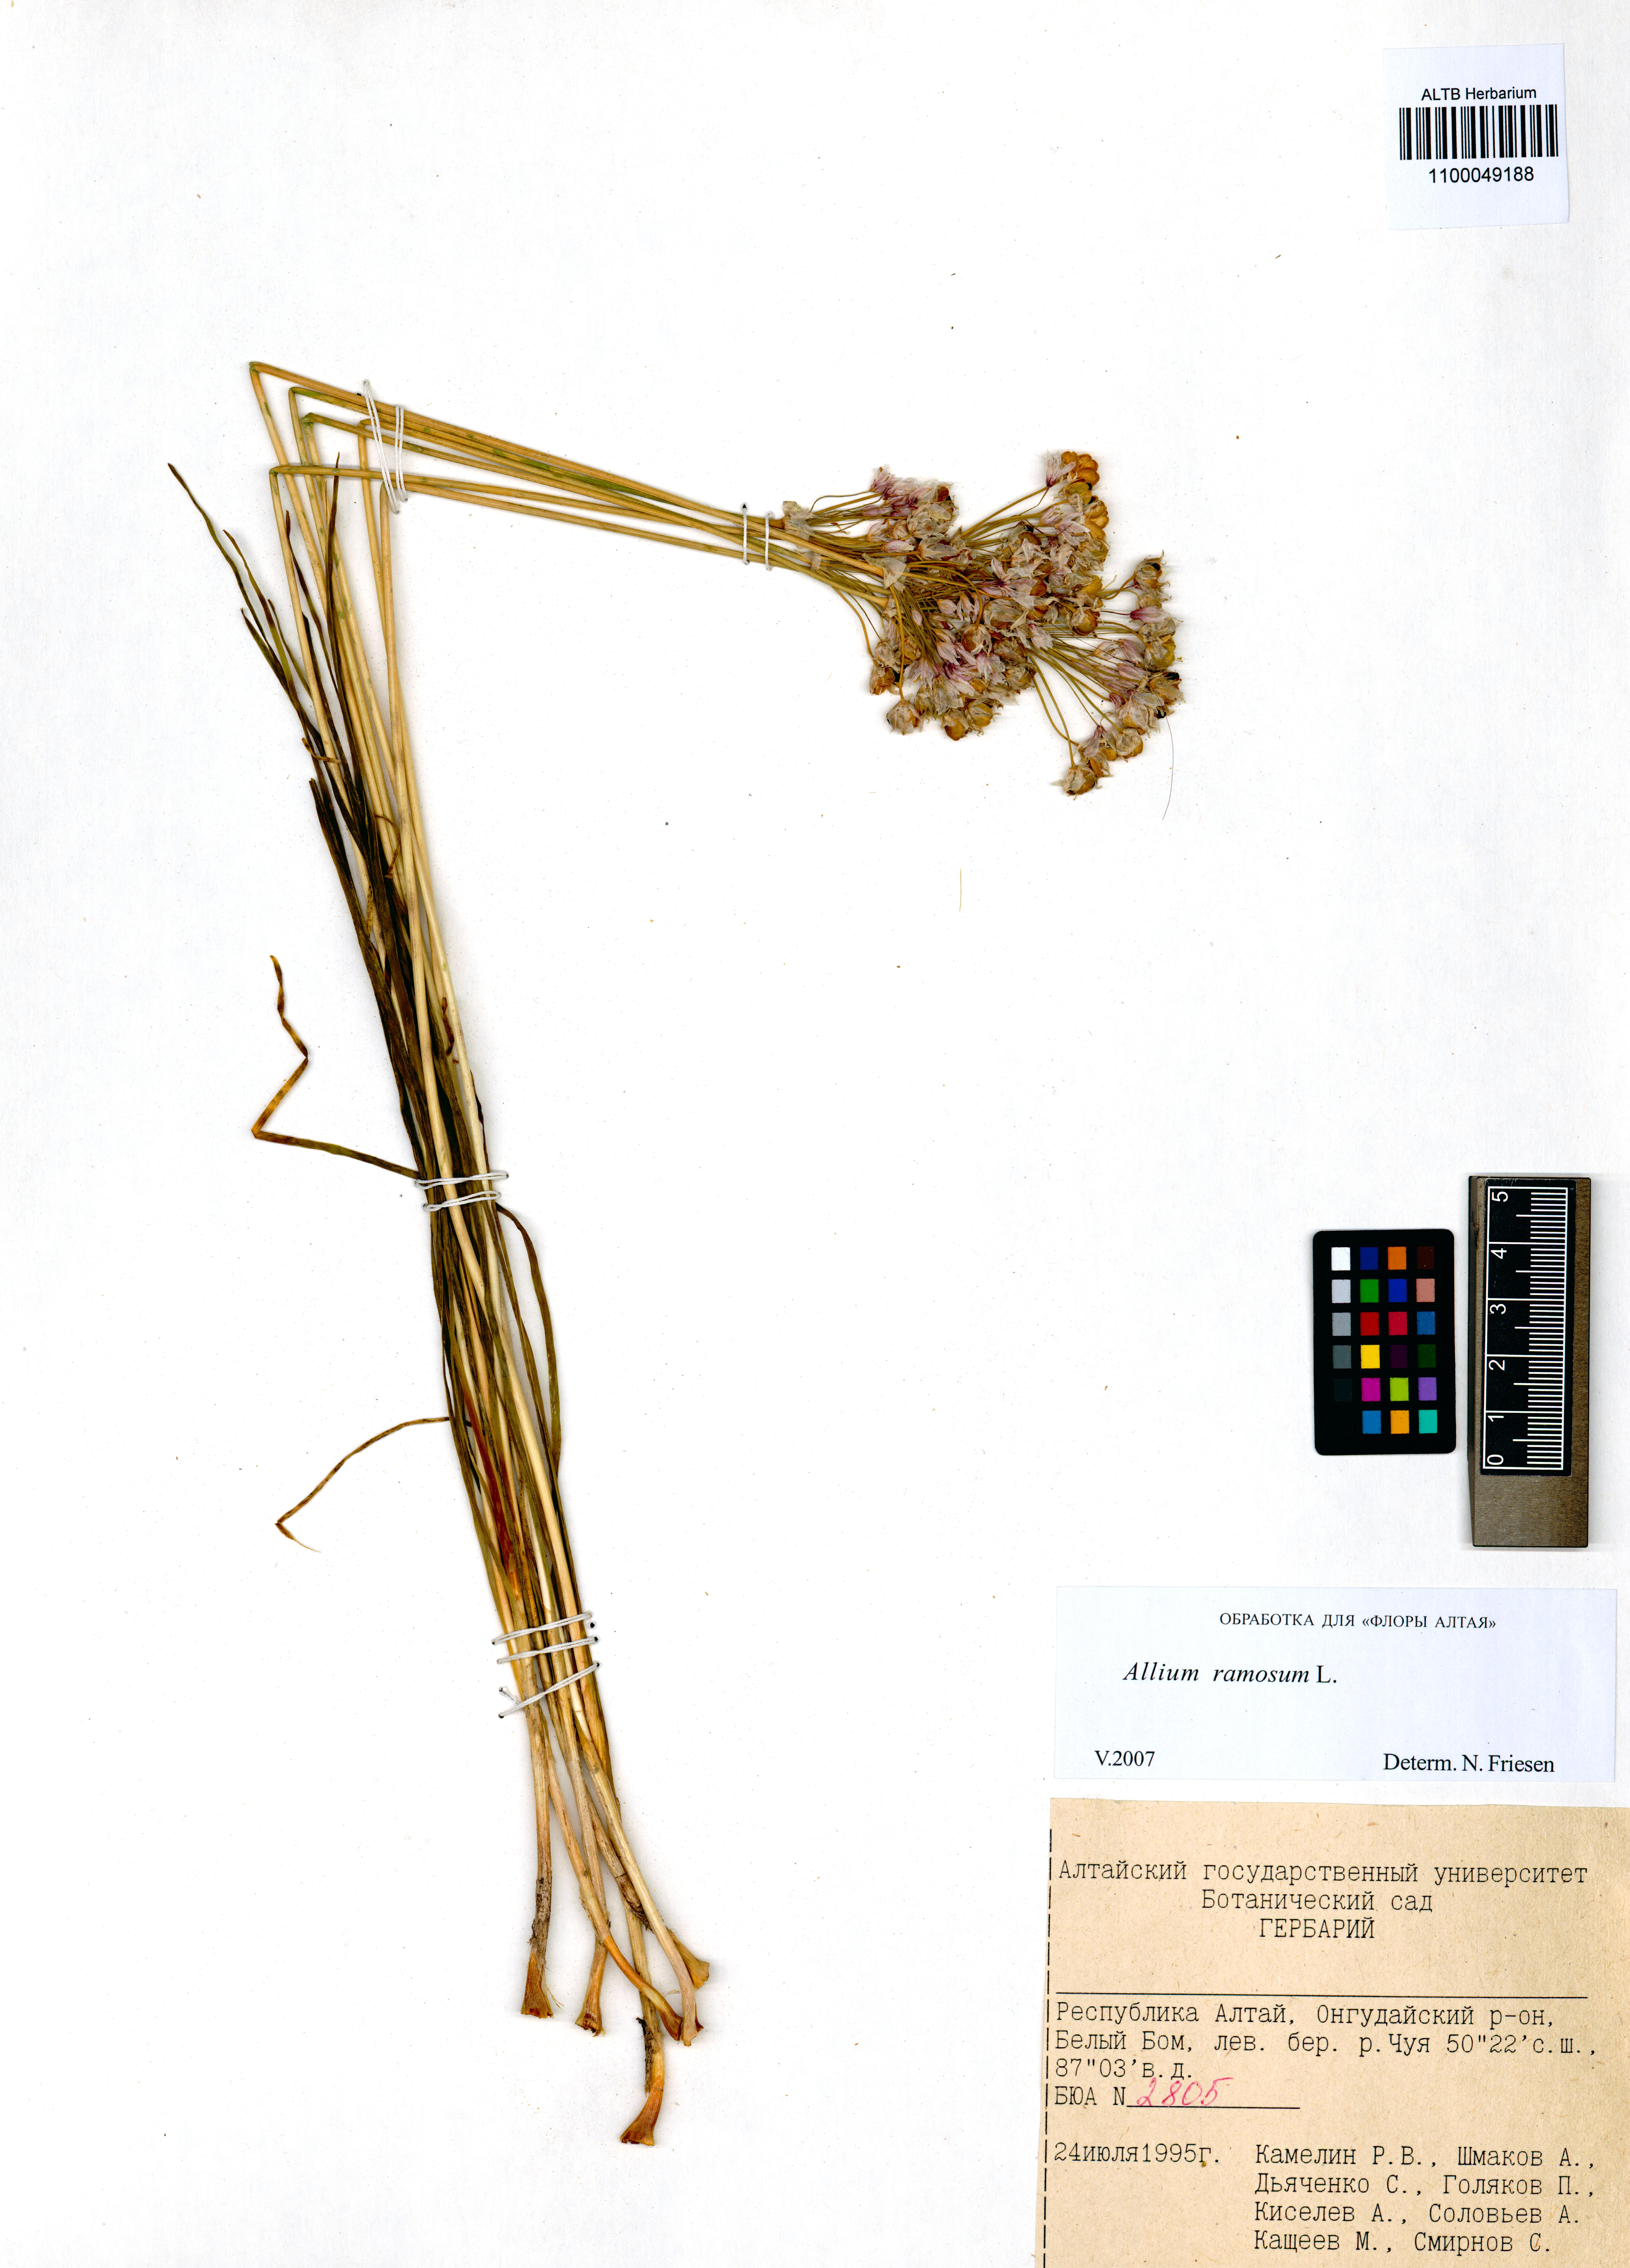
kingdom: Plantae
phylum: Tracheophyta
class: Liliopsida
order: Asparagales
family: Amaryllidaceae
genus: Allium
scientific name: Allium ramosum
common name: Fragrant garlic
